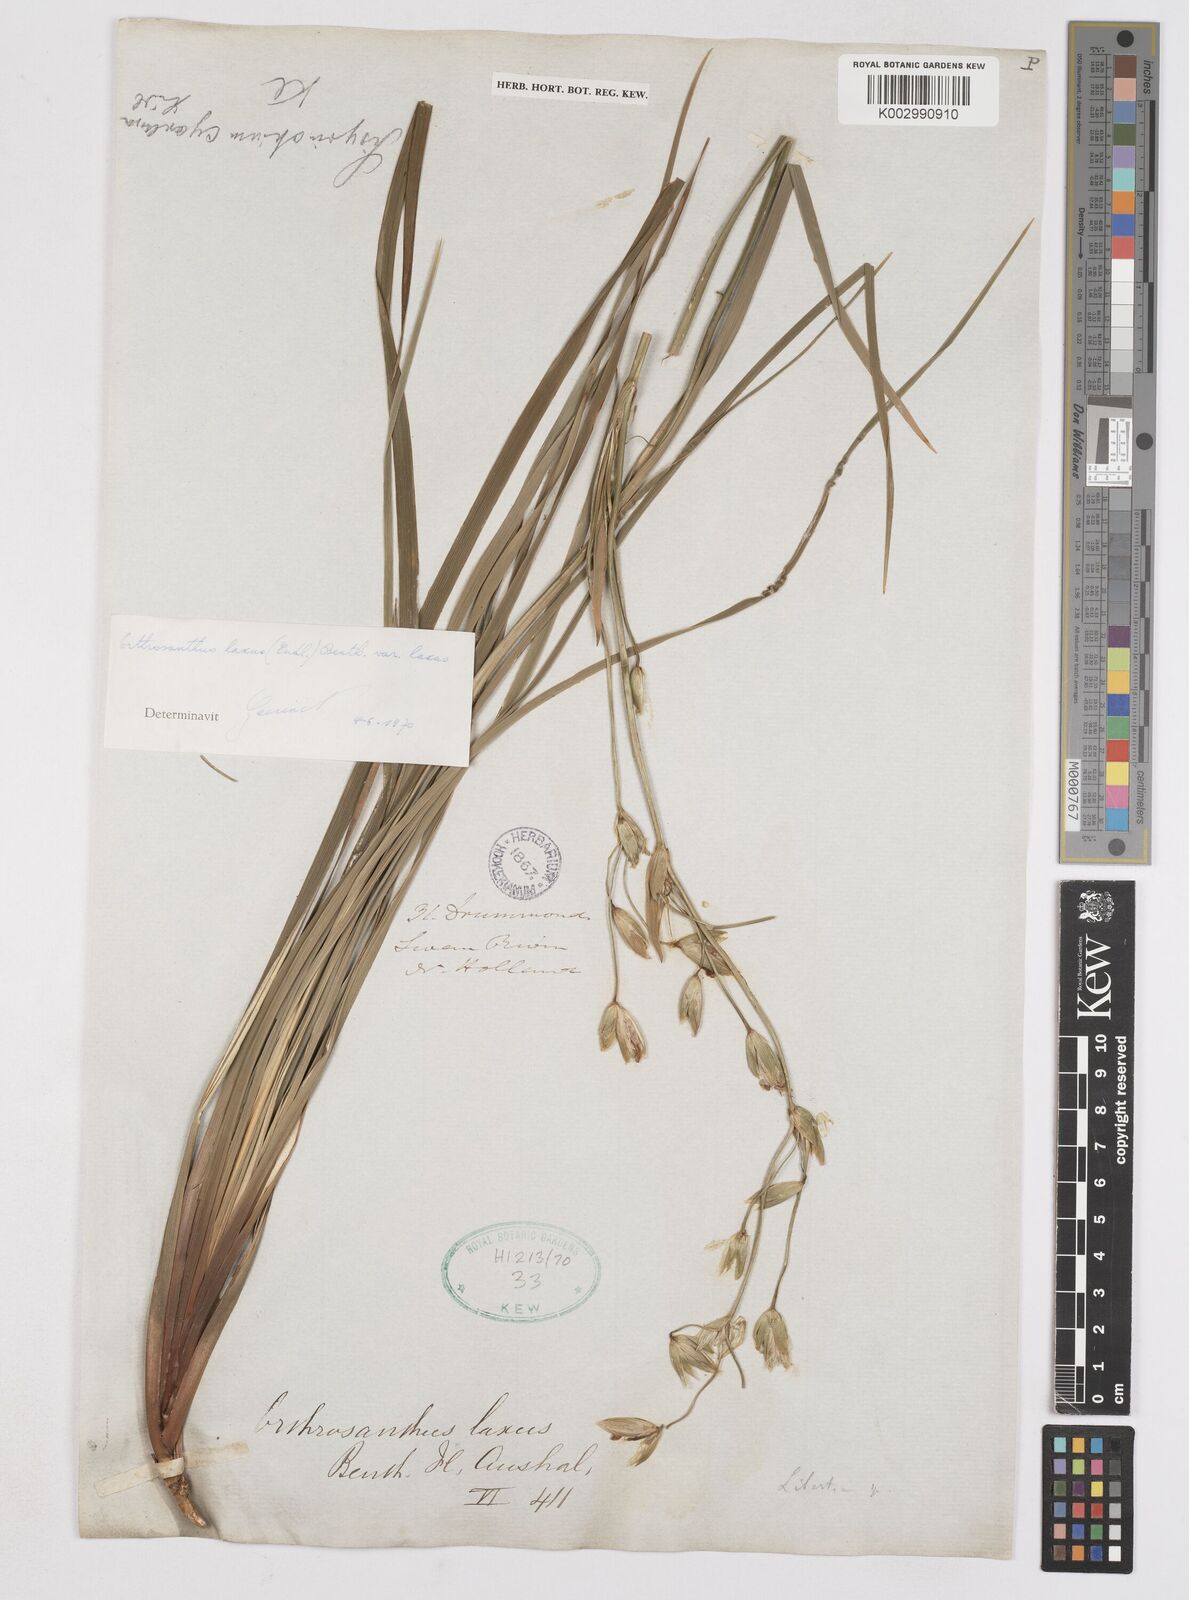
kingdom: Plantae
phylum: Tracheophyta
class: Liliopsida
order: Asparagales
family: Iridaceae
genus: Orthrosanthus
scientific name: Orthrosanthus laxus
